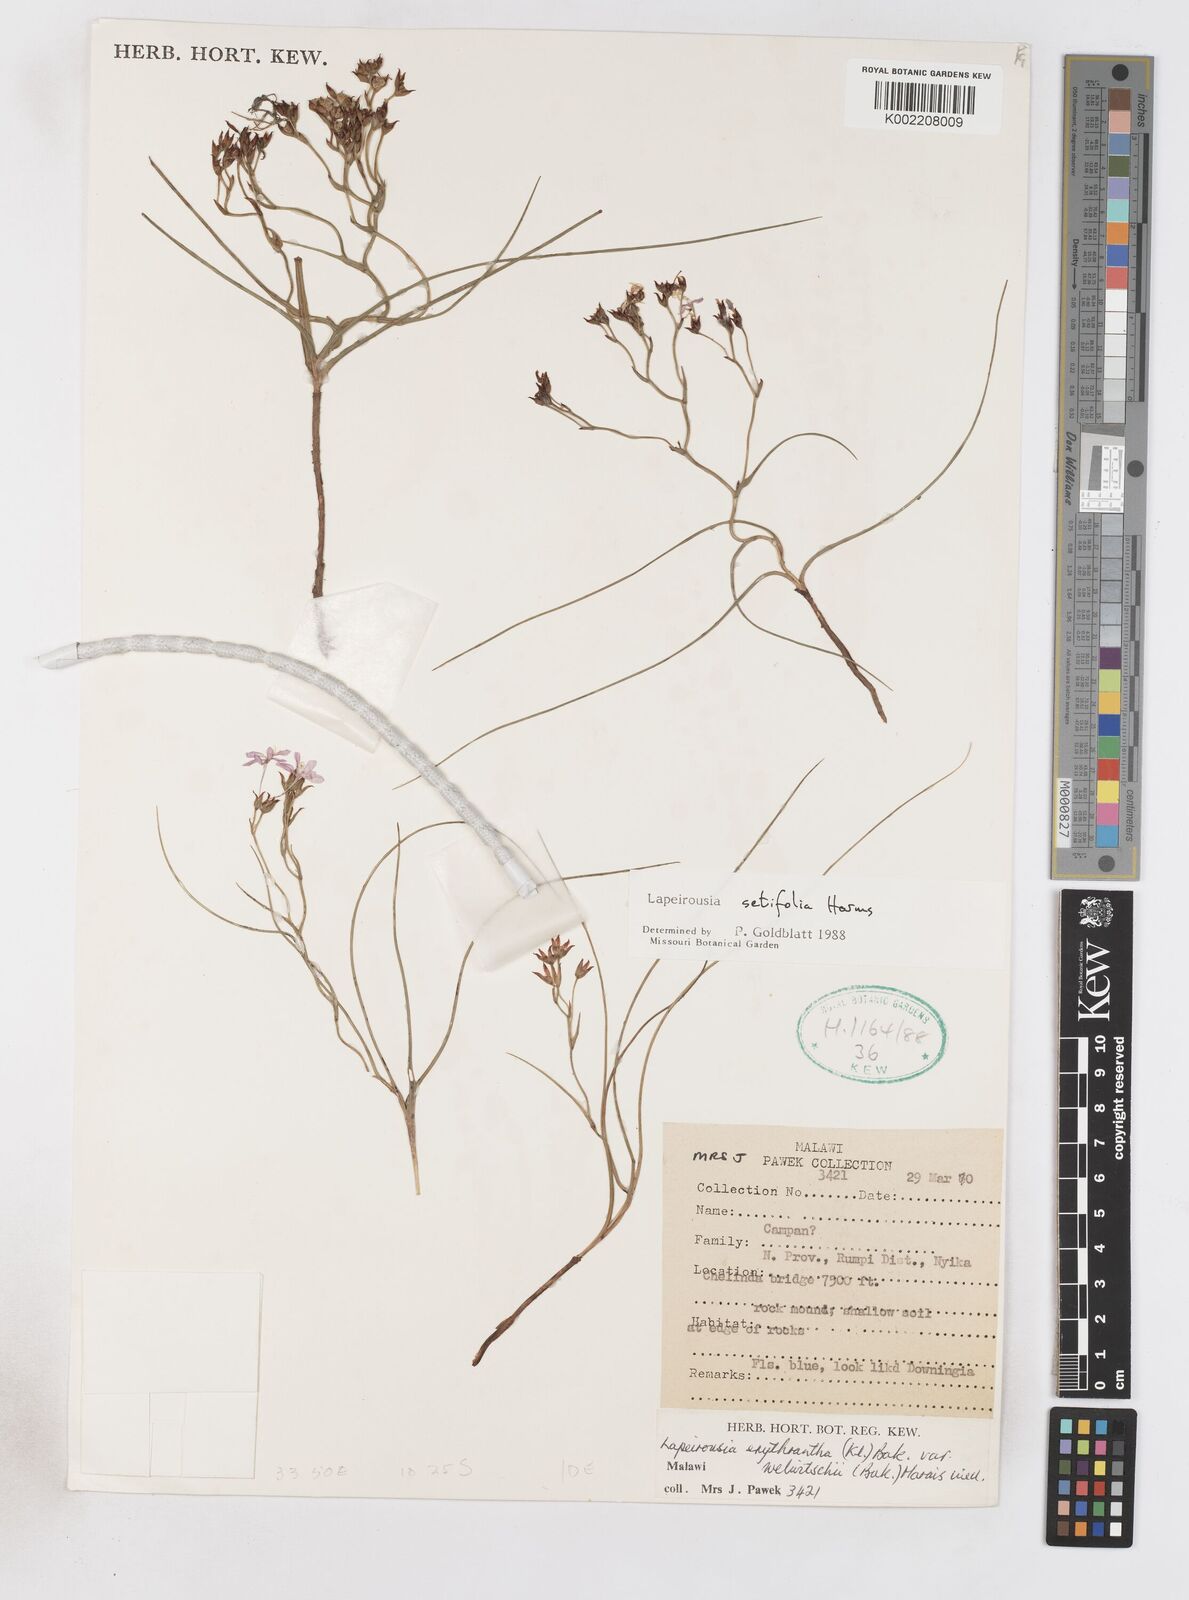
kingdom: Plantae
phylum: Tracheophyta
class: Liliopsida
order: Asparagales
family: Iridaceae
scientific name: Iridaceae
